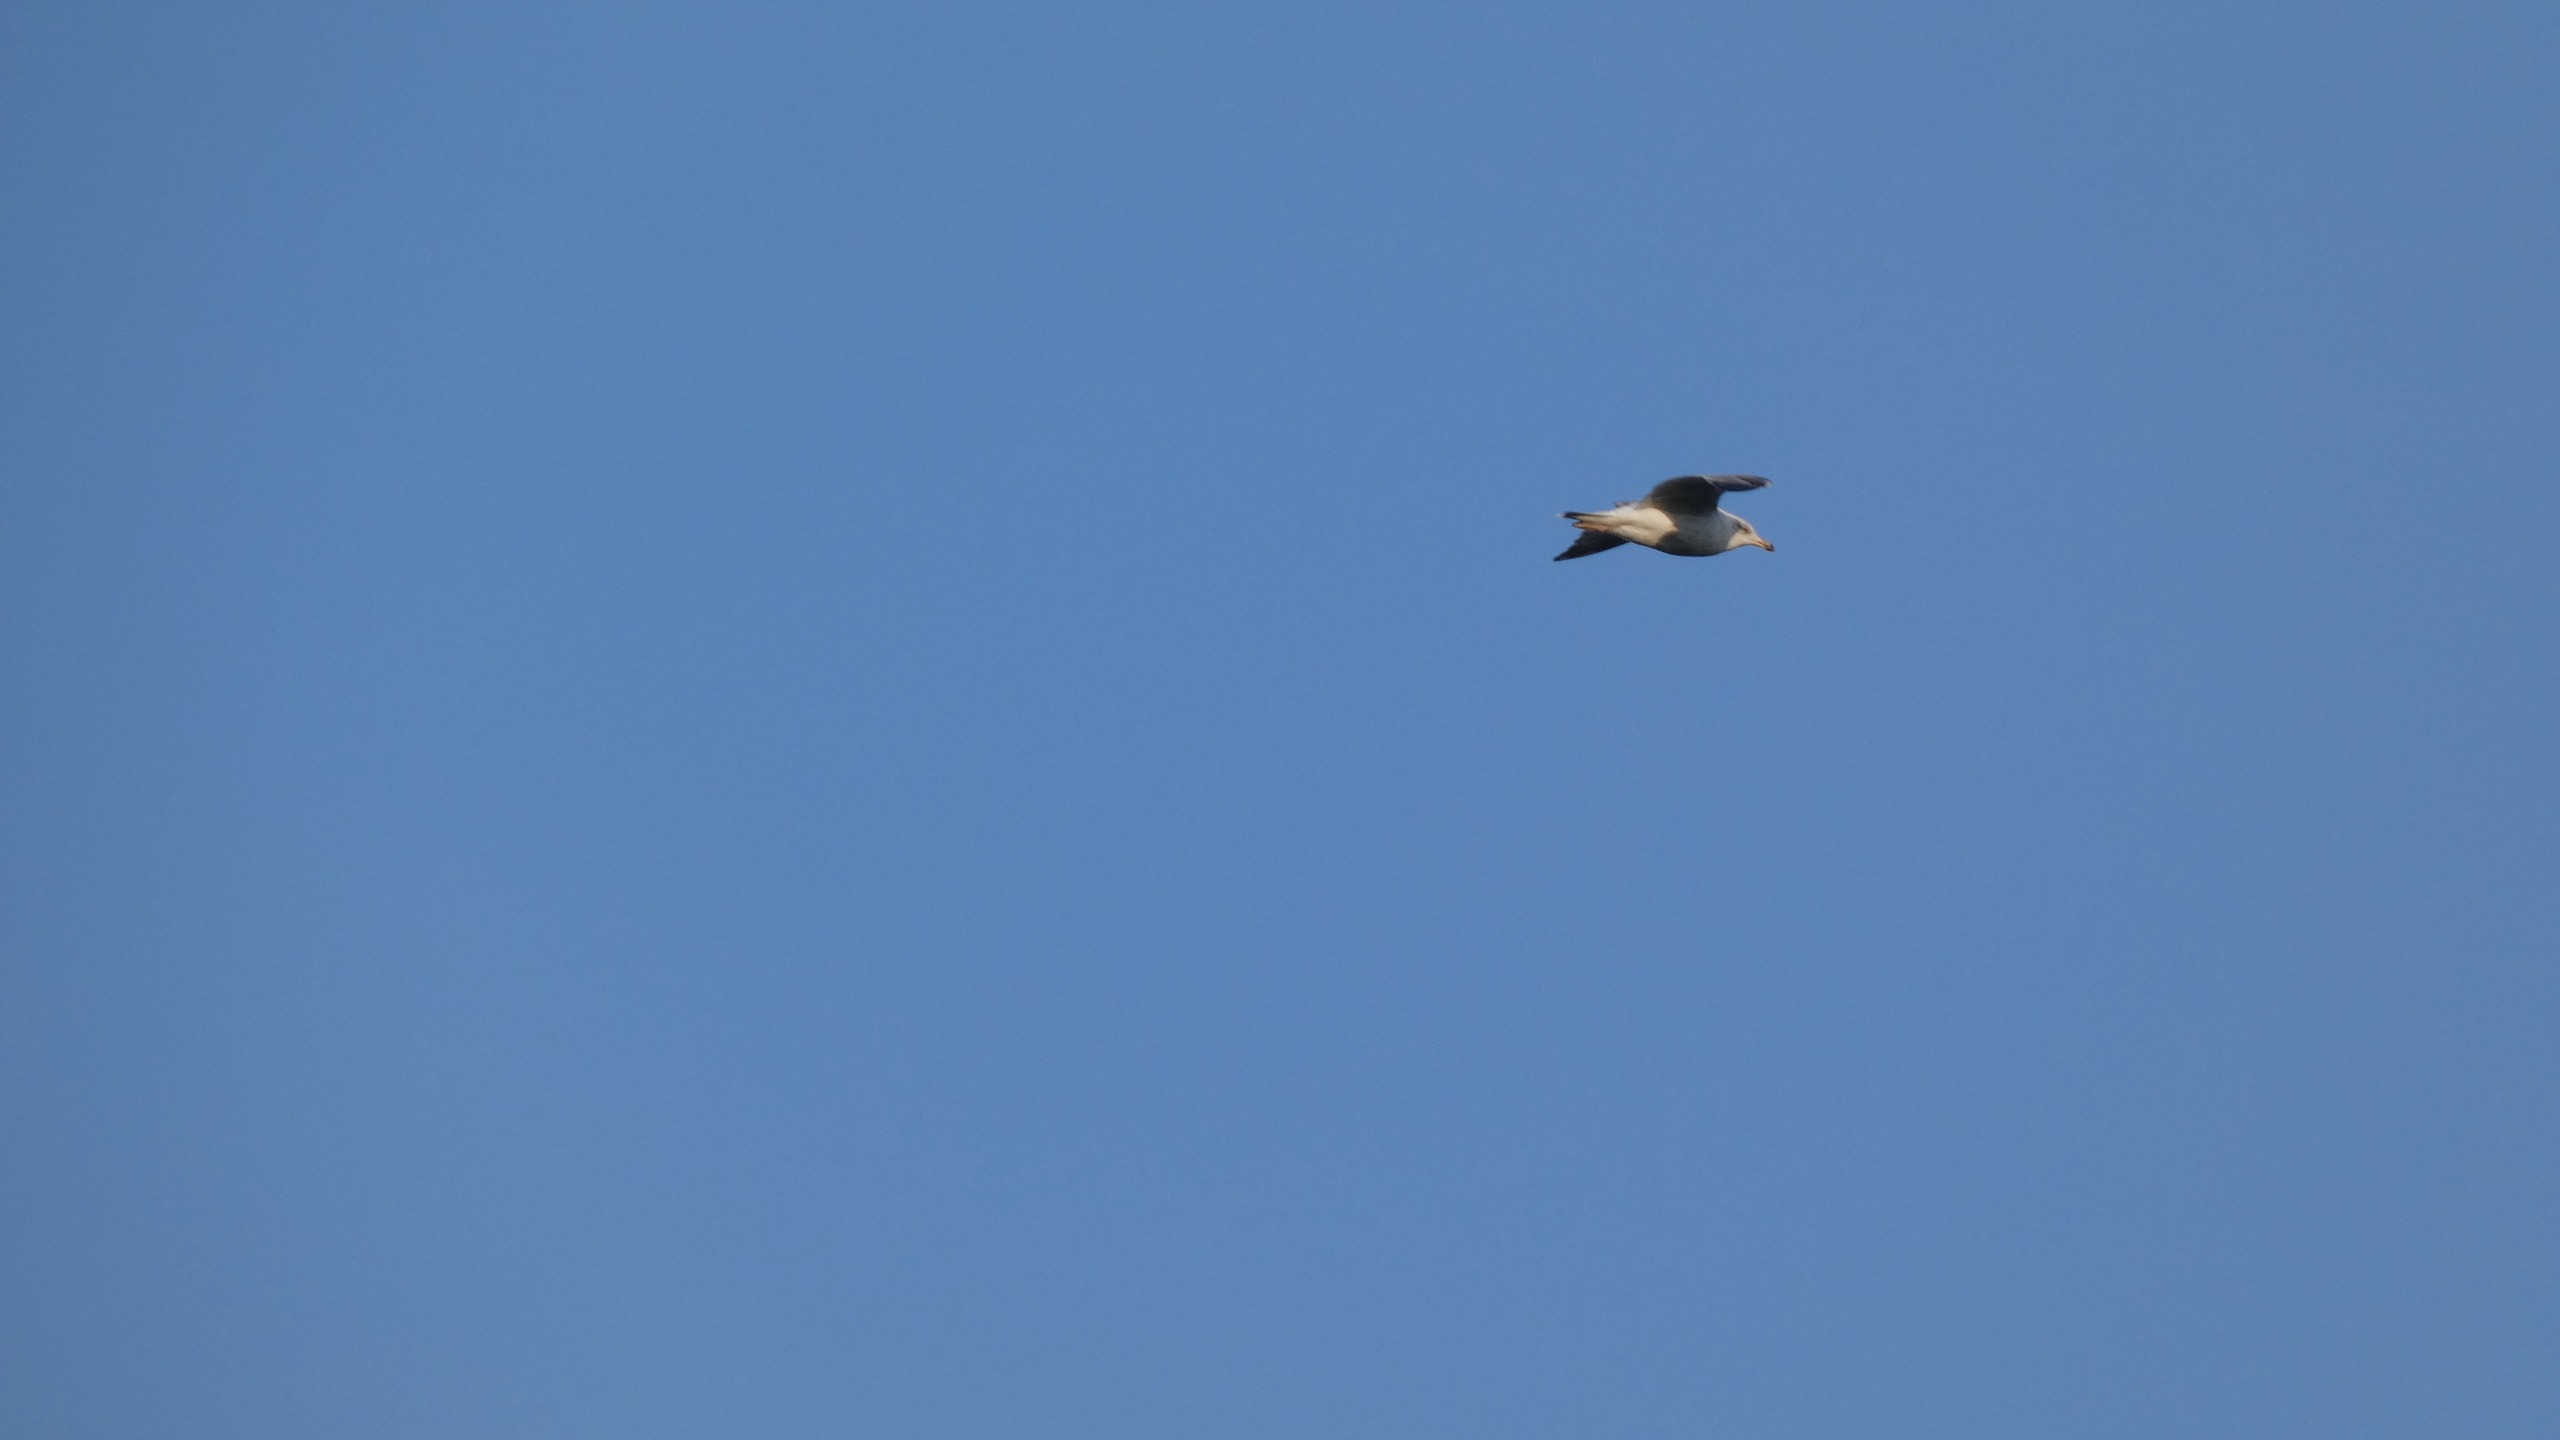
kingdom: Animalia
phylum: Chordata
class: Aves
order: Charadriiformes
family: Laridae
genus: Larus
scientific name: Larus argentatus
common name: Sølvmåge
